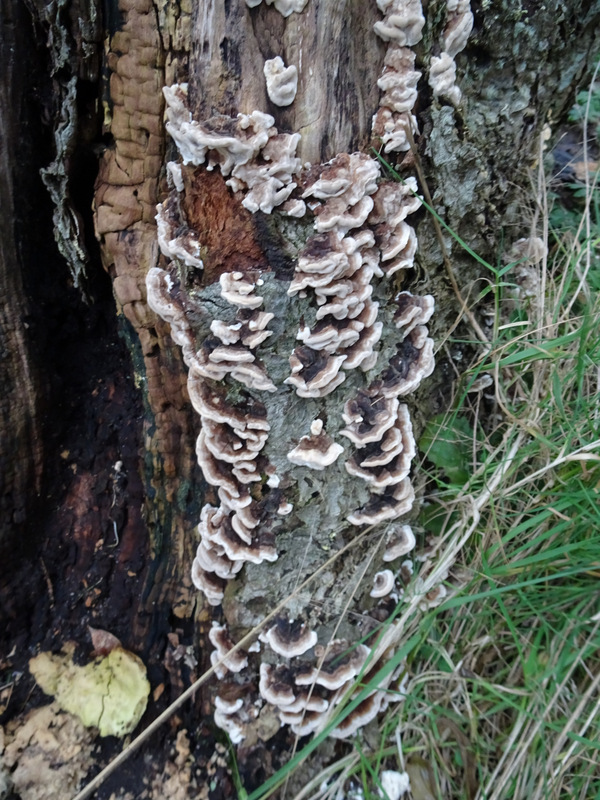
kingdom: Fungi
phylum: Basidiomycota
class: Agaricomycetes
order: Polyporales
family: Polyporaceae
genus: Trametes
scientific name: Trametes versicolor
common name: broget læderporesvamp
